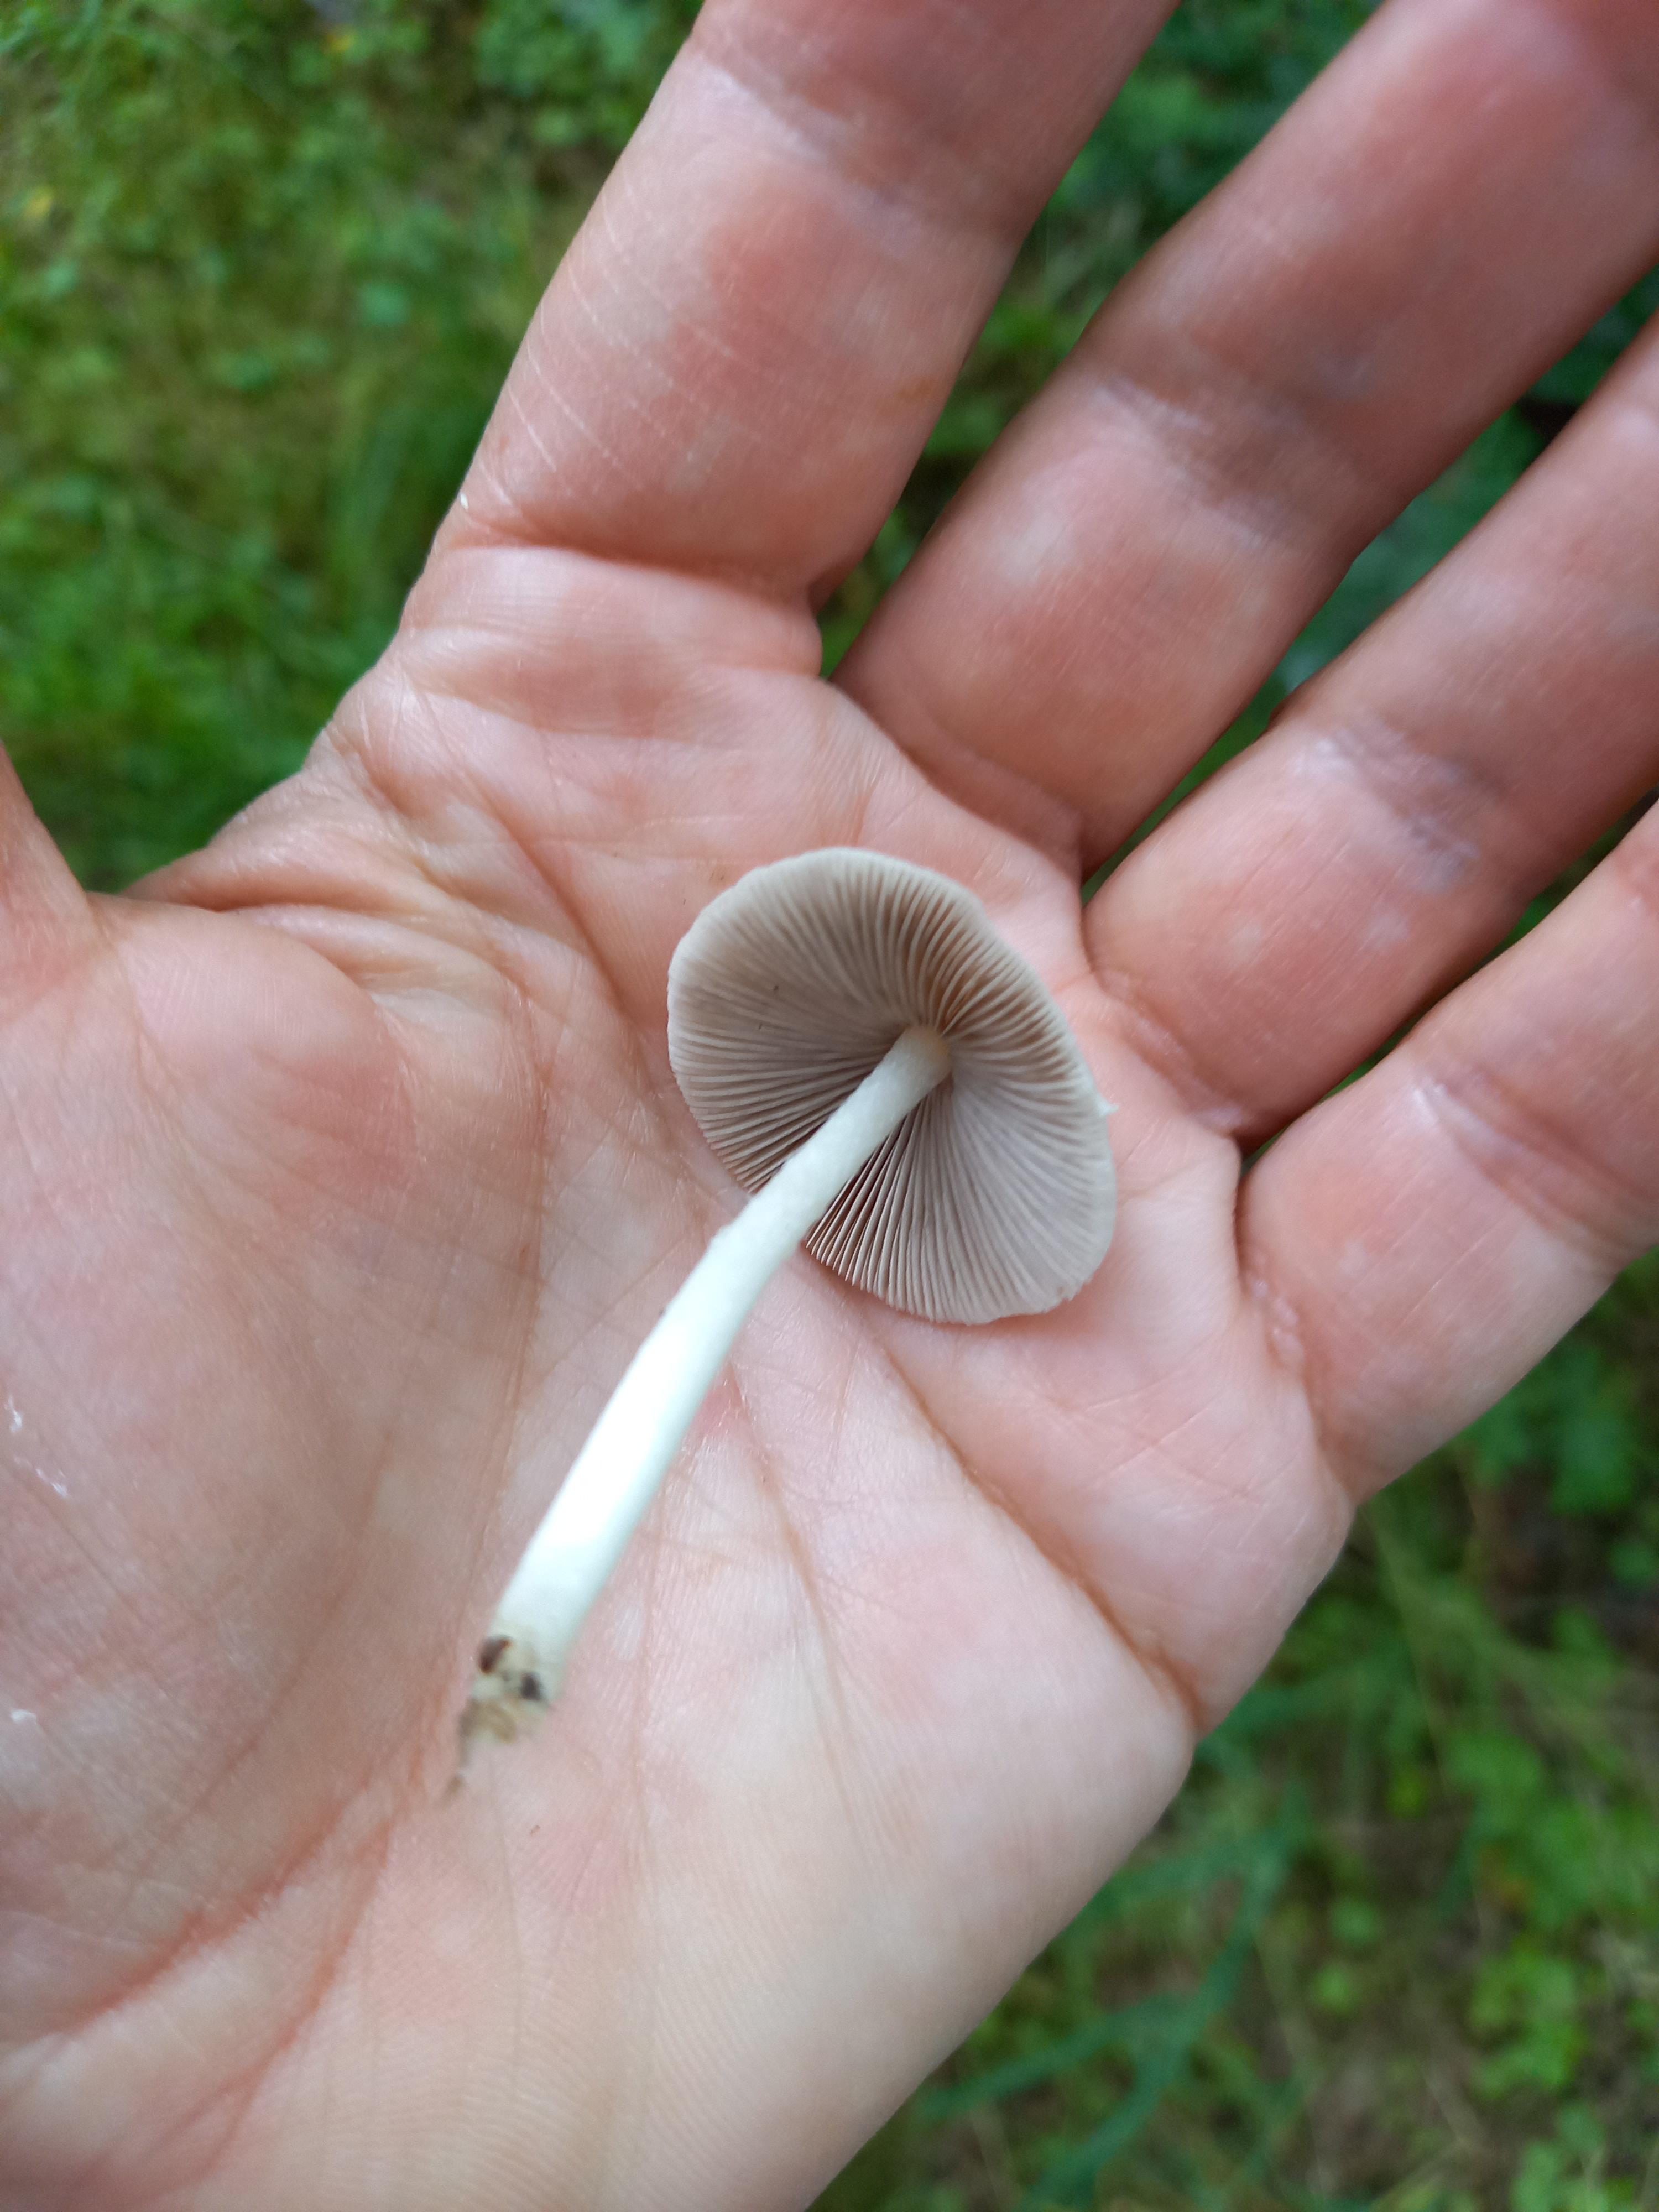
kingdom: Fungi
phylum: Basidiomycota
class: Agaricomycetes
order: Agaricales
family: Psathyrellaceae
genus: Candolleomyces
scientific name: Candolleomyces candolleanus
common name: Candolles mørkhat
